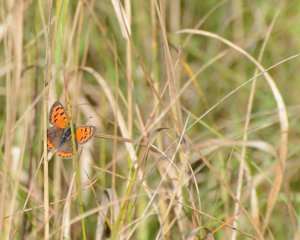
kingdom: Animalia
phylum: Arthropoda
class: Insecta
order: Lepidoptera
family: Lycaenidae
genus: Lycaena
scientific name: Lycaena phlaeas
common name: American Copper
